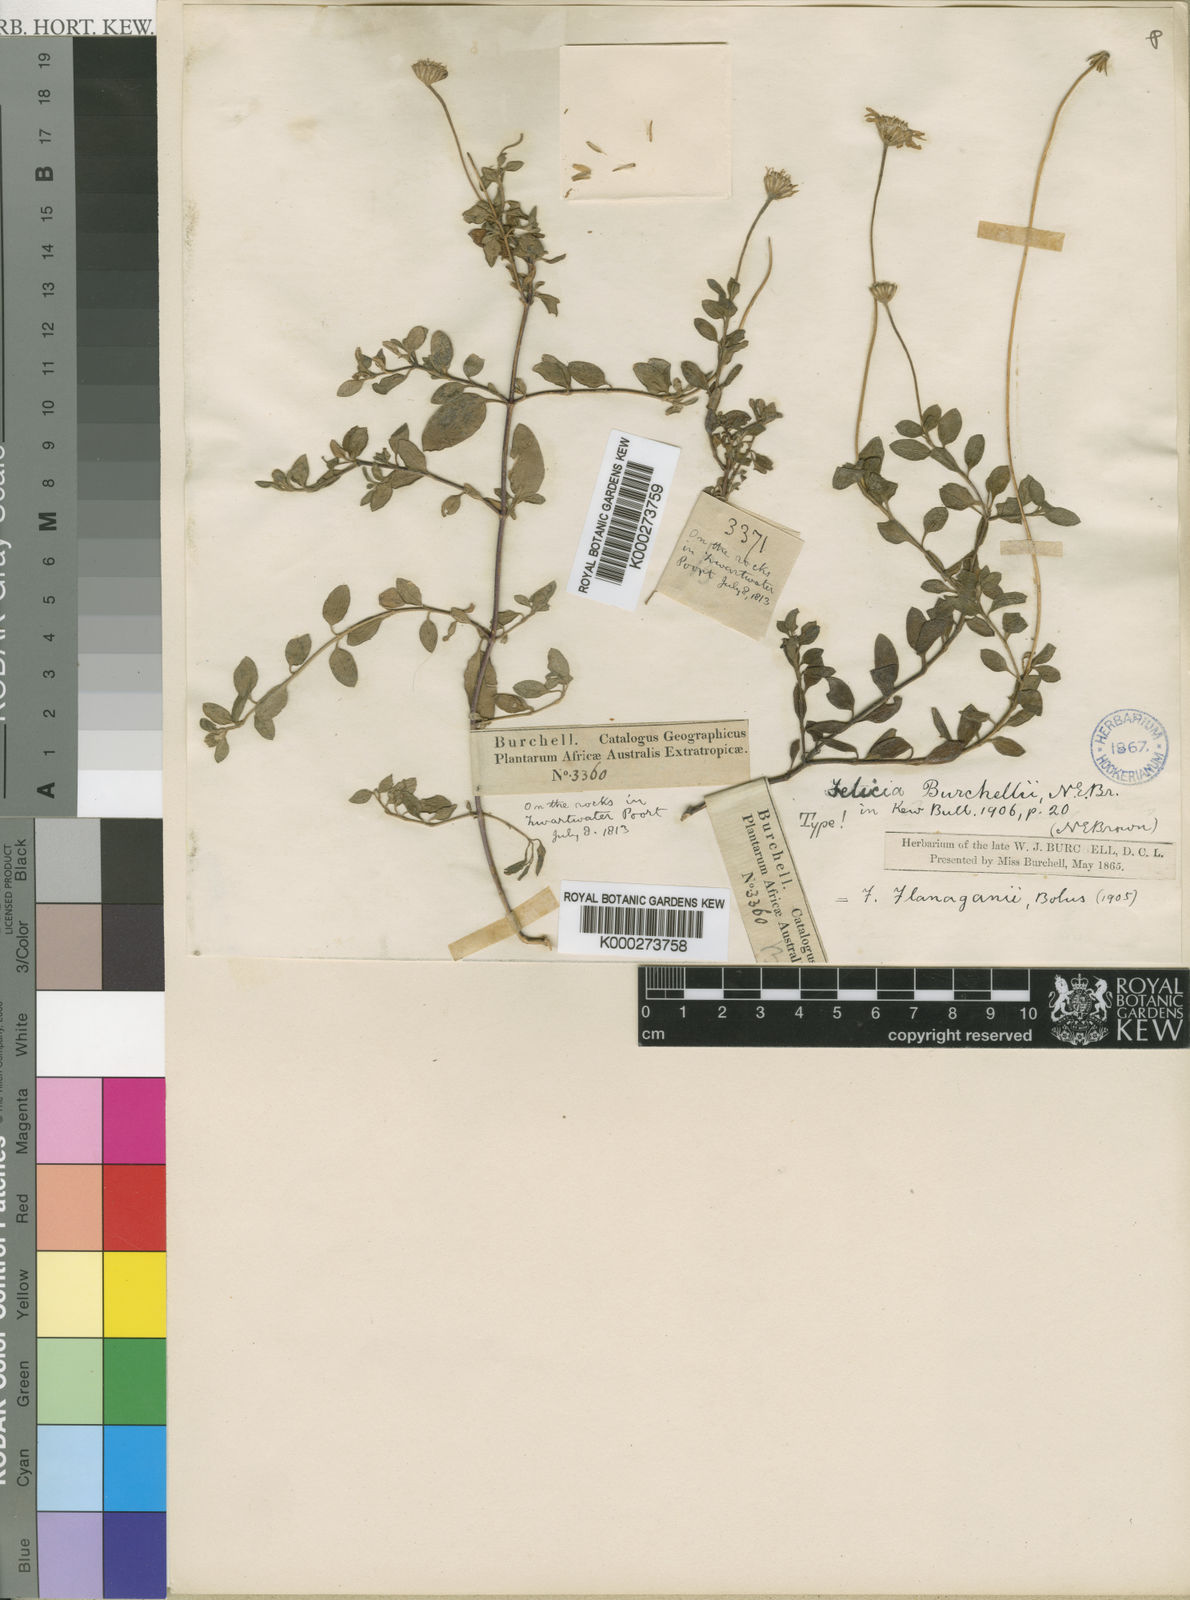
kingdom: Plantae
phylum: Tracheophyta
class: Magnoliopsida
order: Asterales
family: Asteraceae
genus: Felicia
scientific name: Felicia flanaganii
